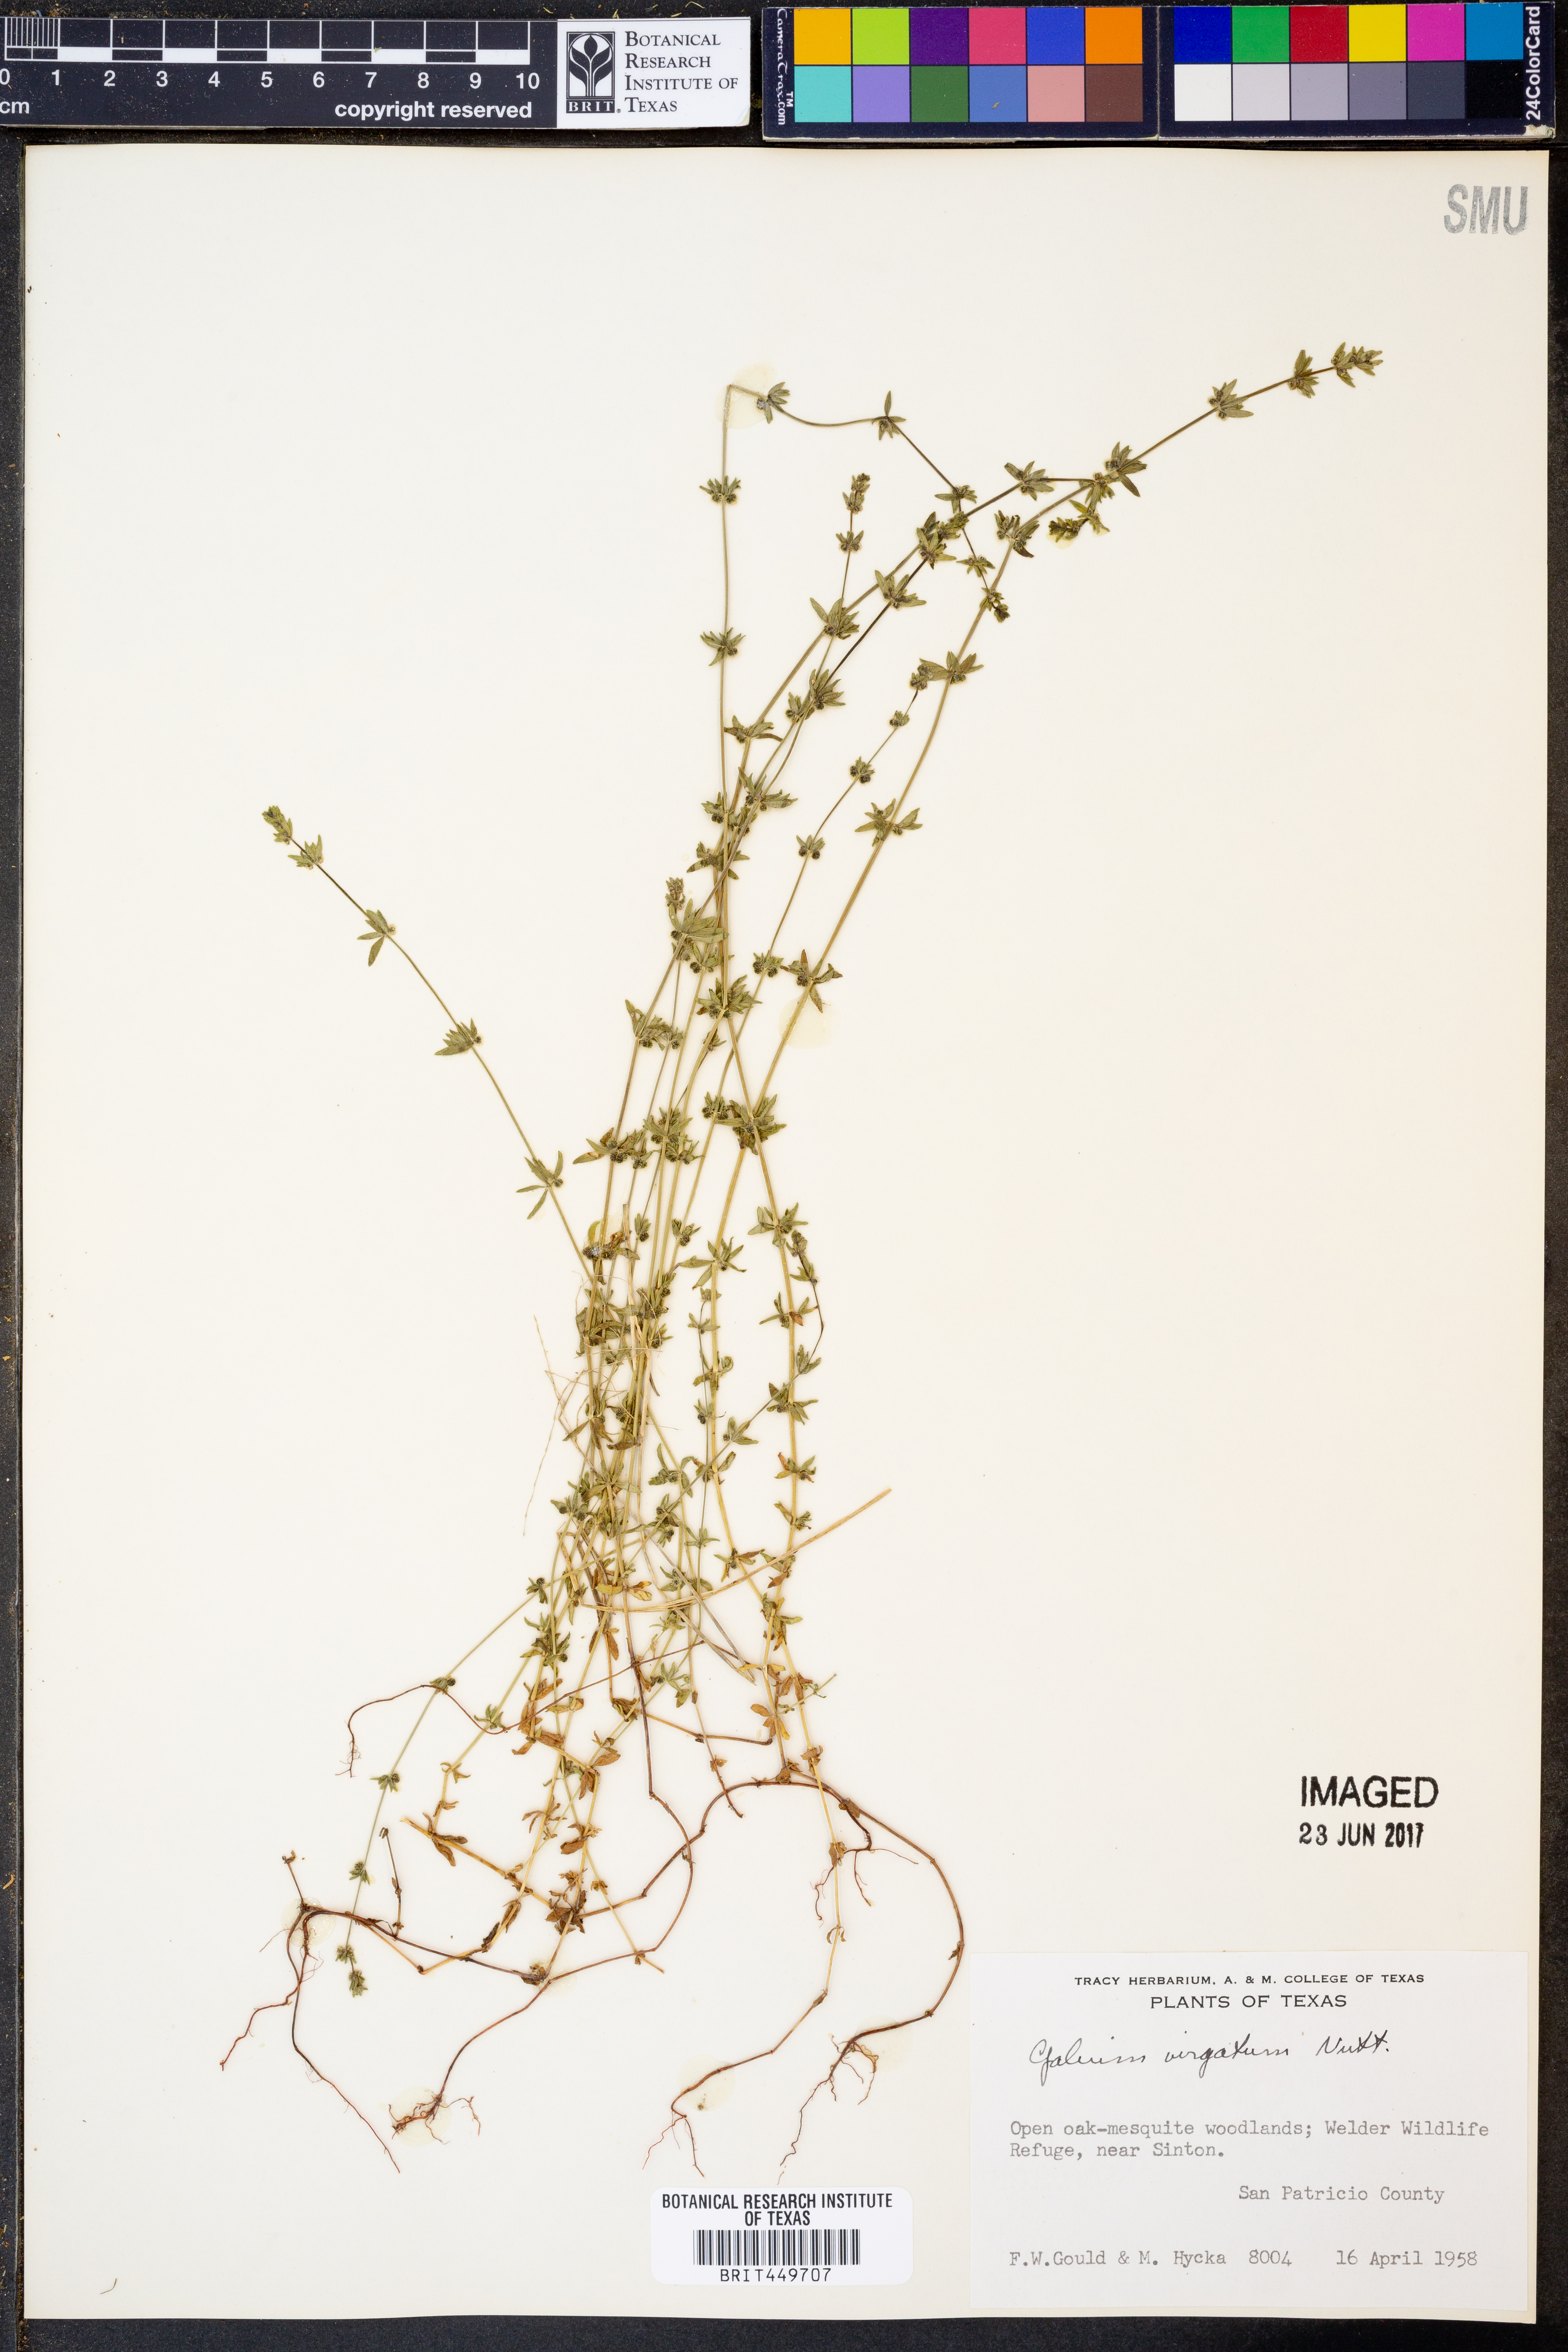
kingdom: Plantae
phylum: Tracheophyta
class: Magnoliopsida
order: Gentianales
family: Rubiaceae
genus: Galium
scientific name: Galium virgatum
